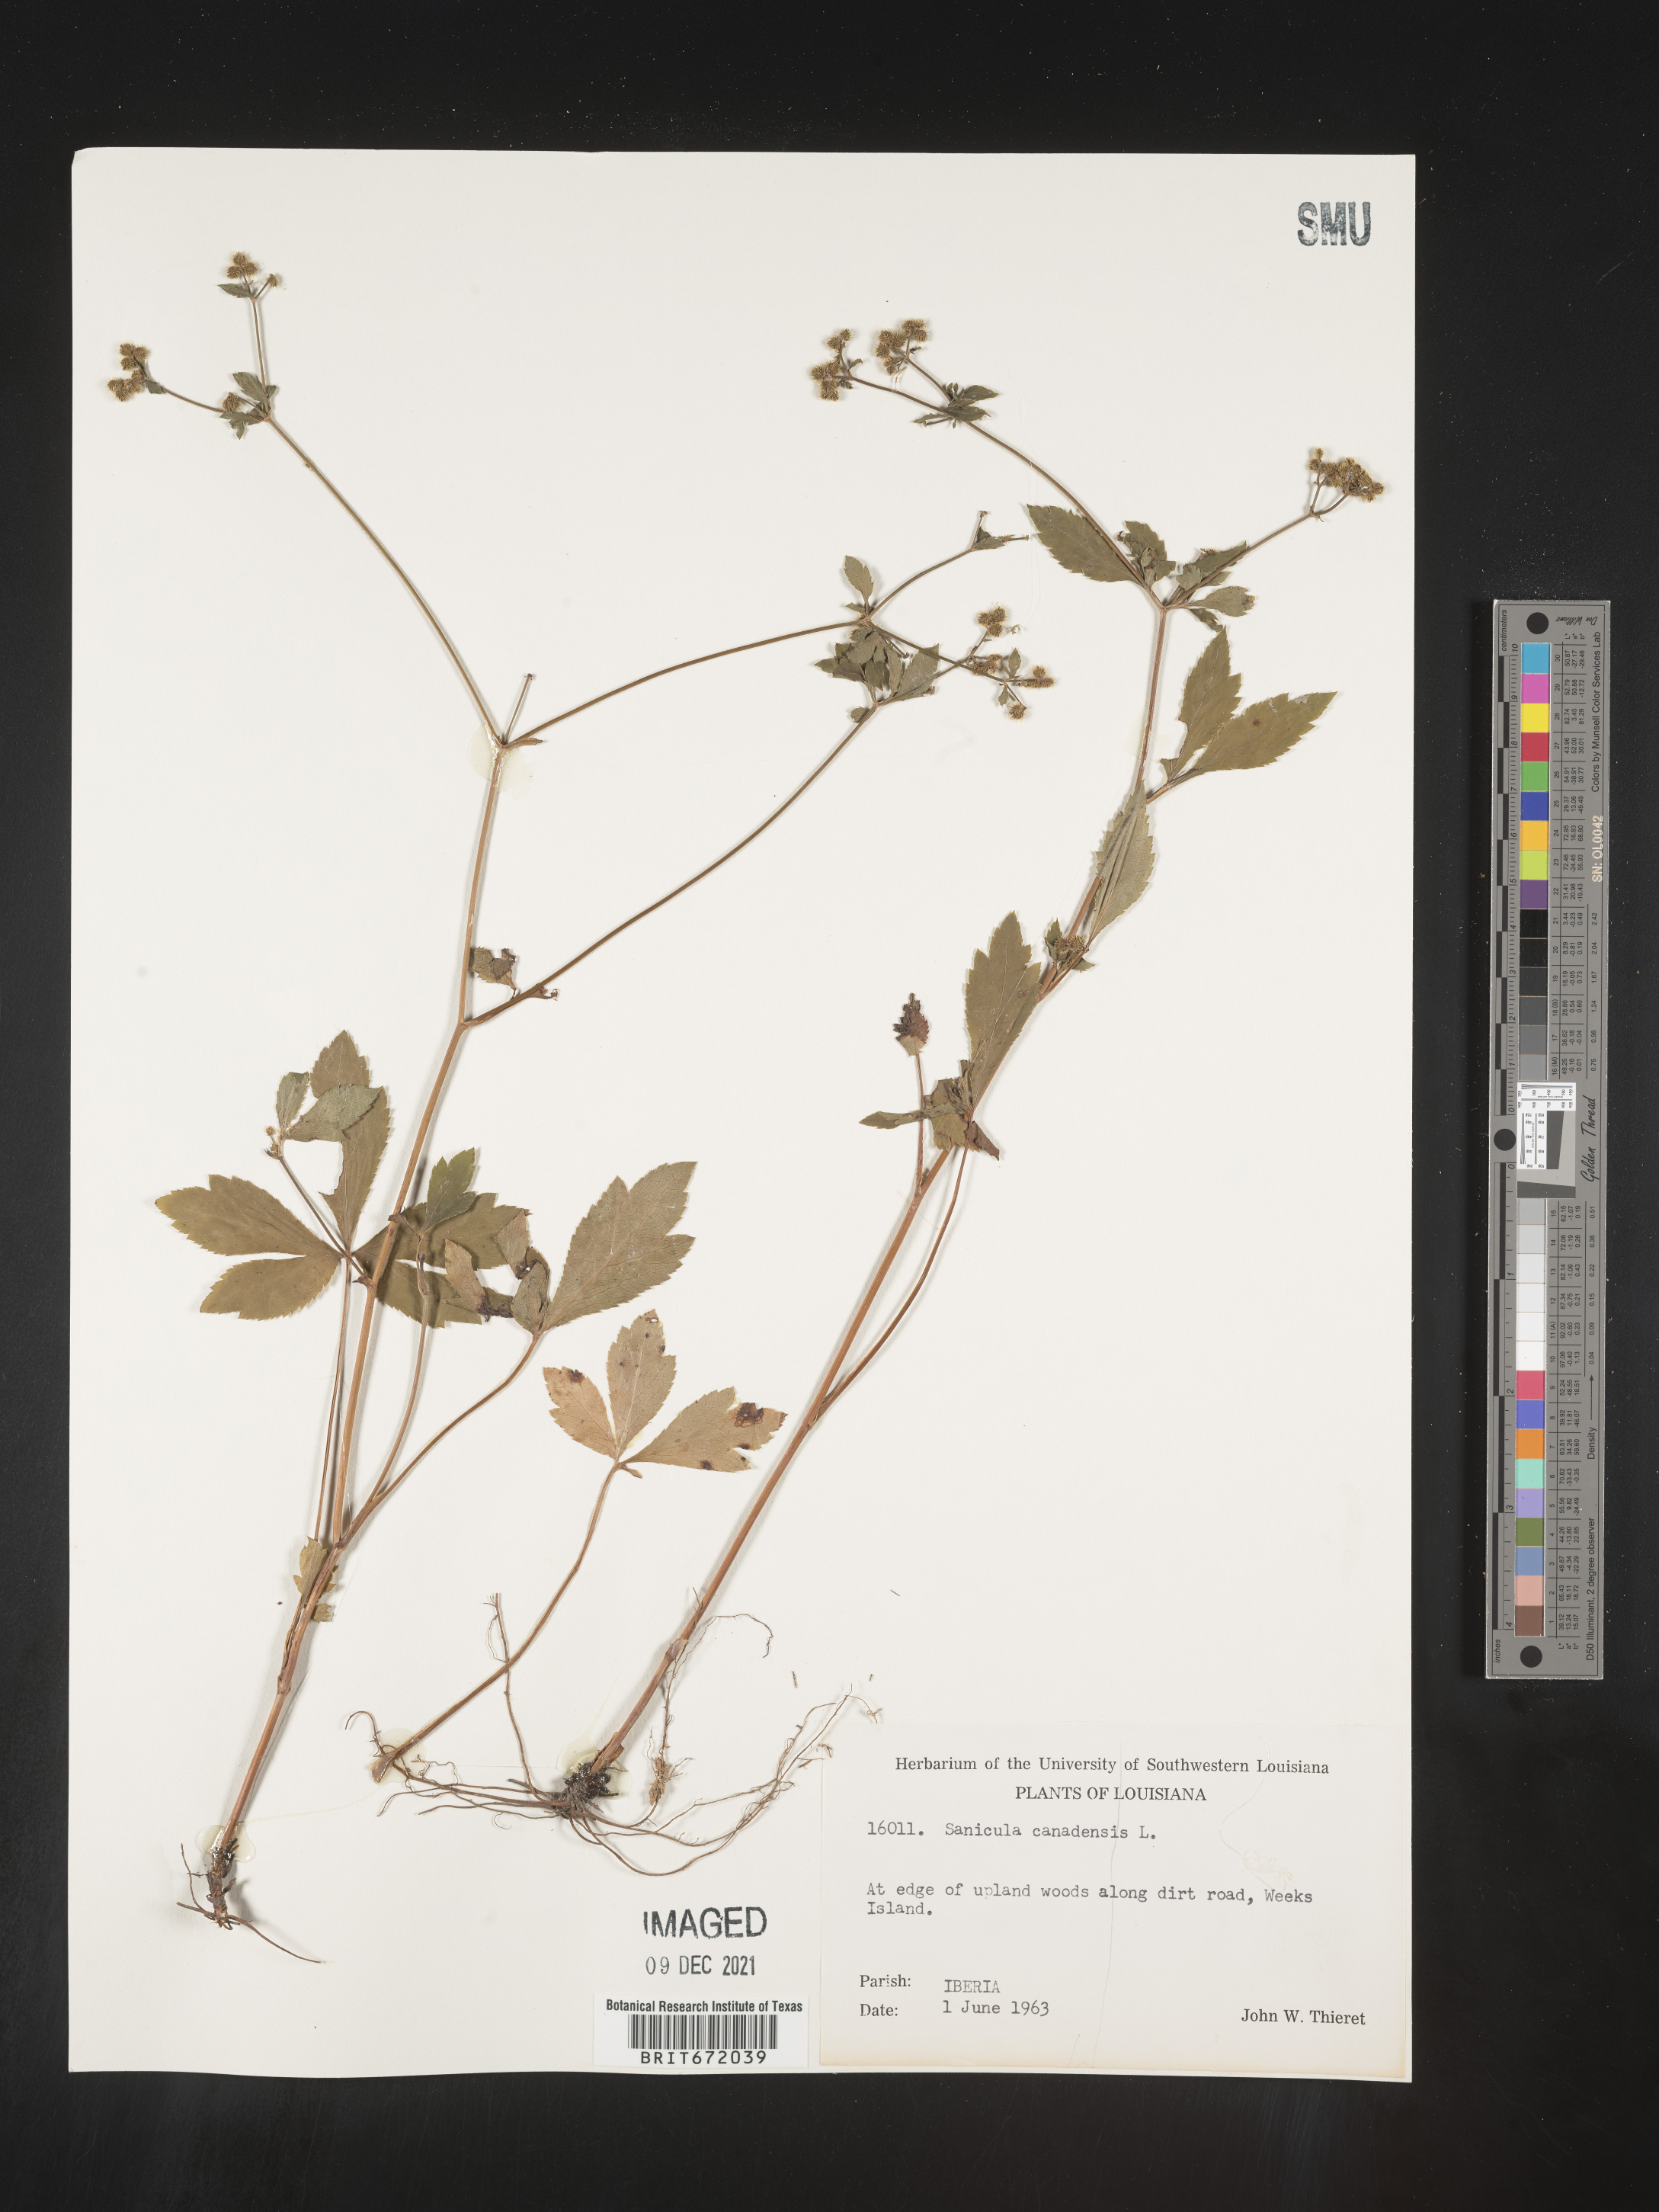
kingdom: Plantae
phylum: Tracheophyta
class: Magnoliopsida
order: Apiales
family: Apiaceae
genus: Sanicula
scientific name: Sanicula canadensis
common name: Canada sanicle
